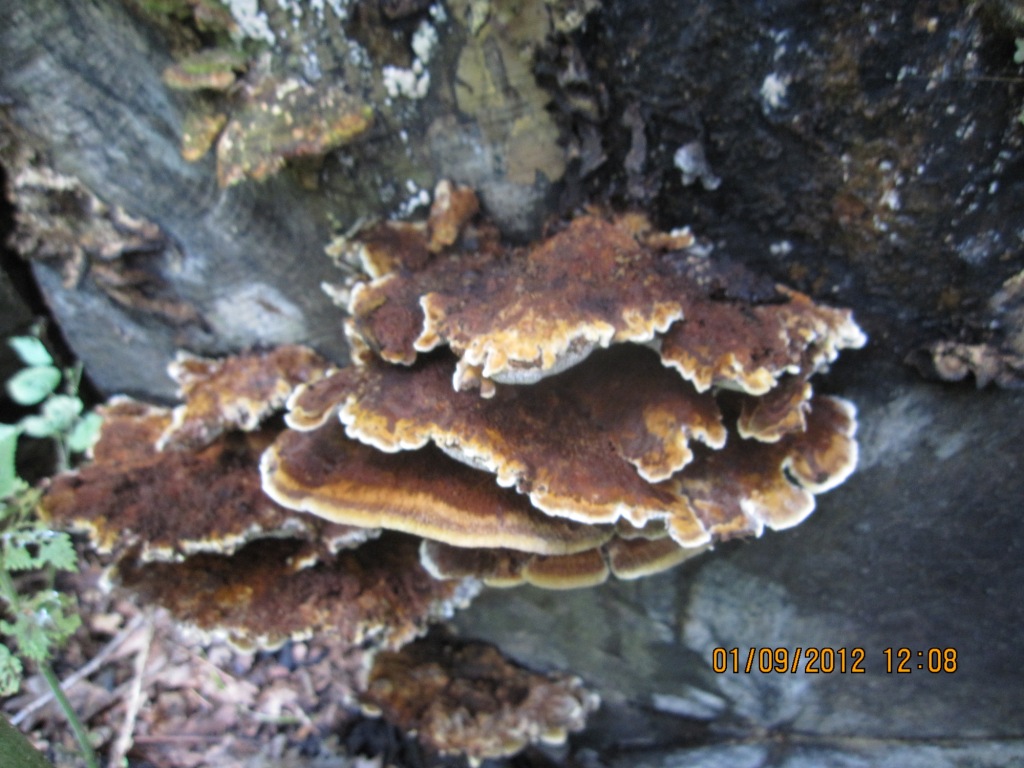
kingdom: Fungi
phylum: Basidiomycota
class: Agaricomycetes
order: Hymenochaetales
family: Hymenochaetaceae
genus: Inonotus
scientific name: Inonotus cuticularis
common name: kroghåret spejlporesvamp
